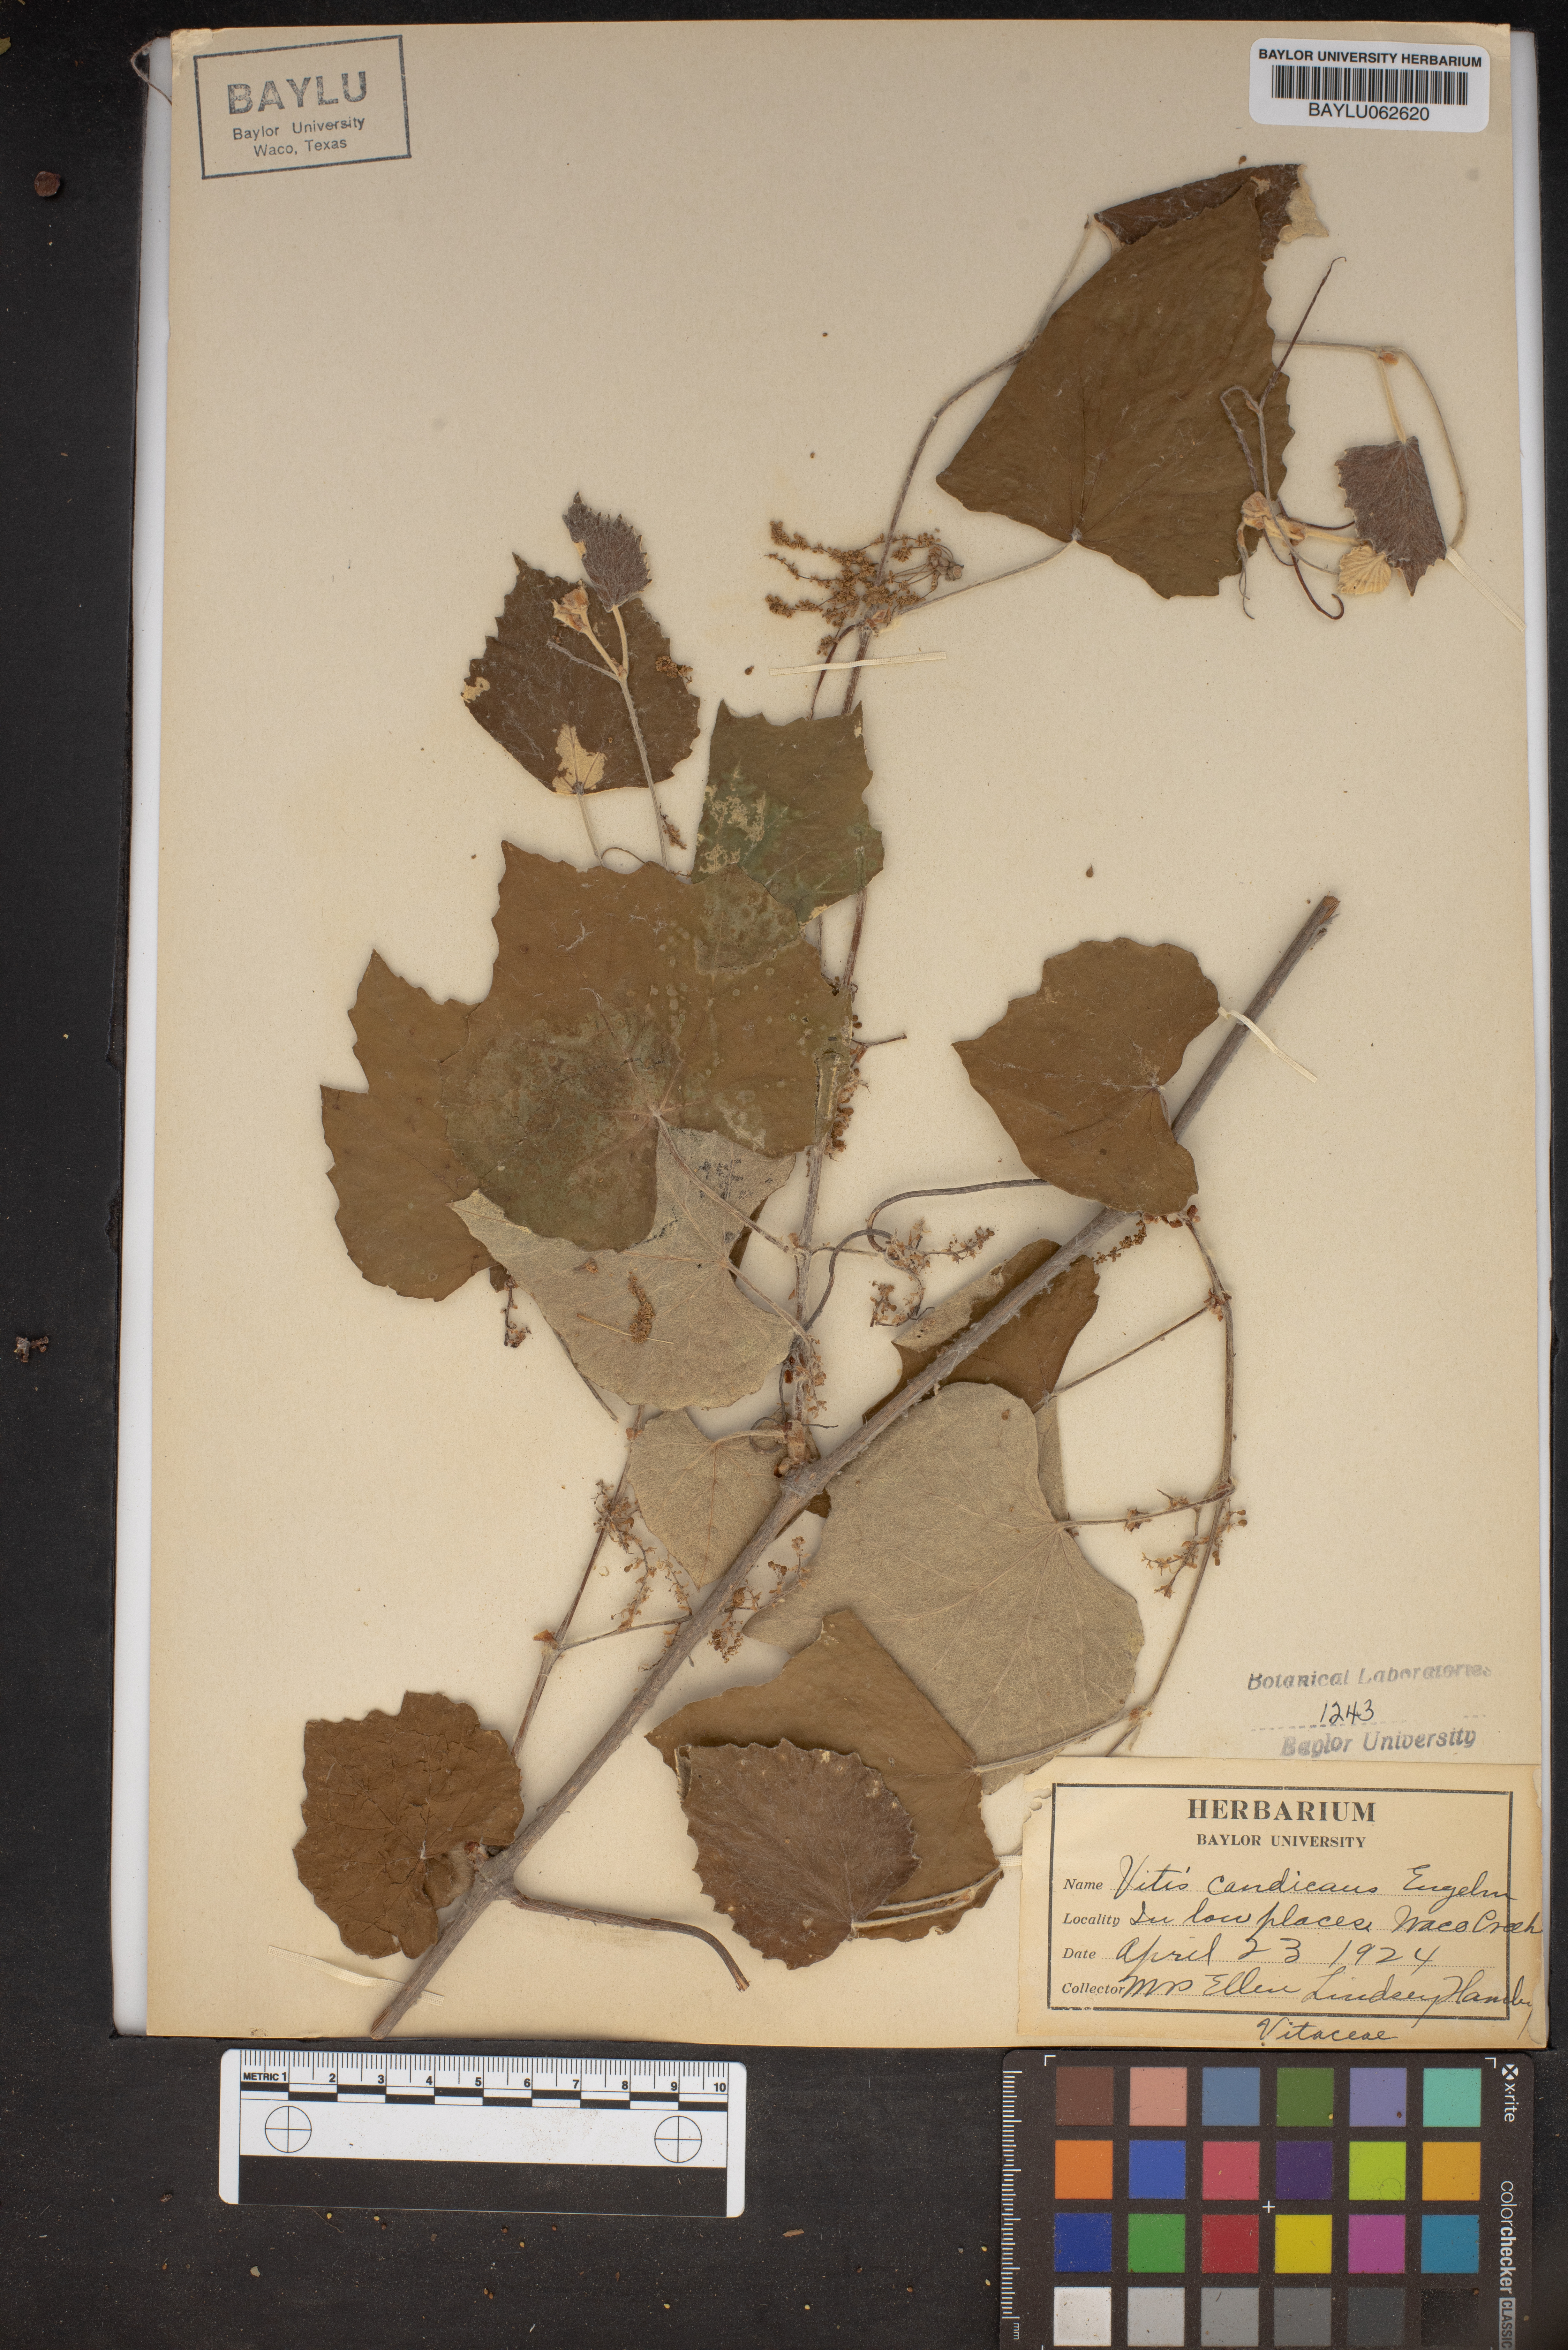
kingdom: Plantae
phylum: Tracheophyta
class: Magnoliopsida
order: Vitales
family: Vitaceae
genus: Vitis
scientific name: Vitis mustangensis
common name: Mustang grape
